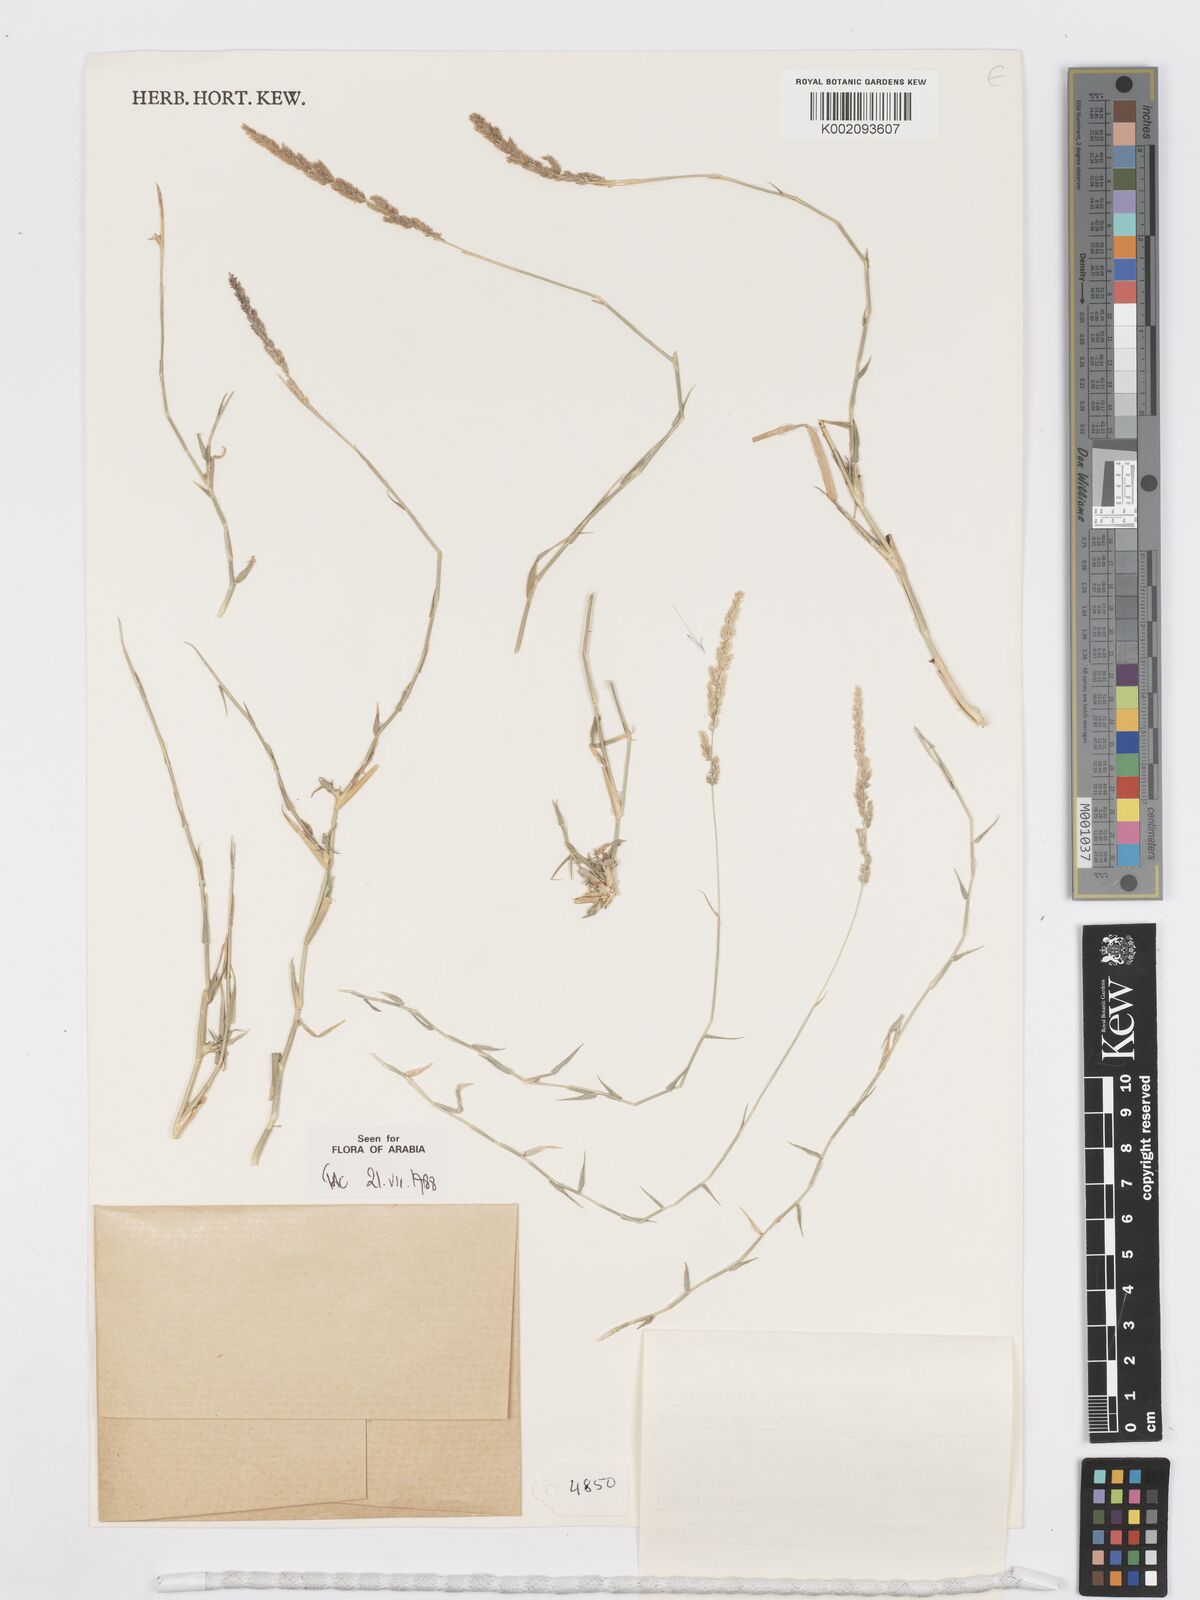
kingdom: Plantae
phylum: Tracheophyta
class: Liliopsida
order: Poales
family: Poaceae
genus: Sporobolus
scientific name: Sporobolus helvolus
